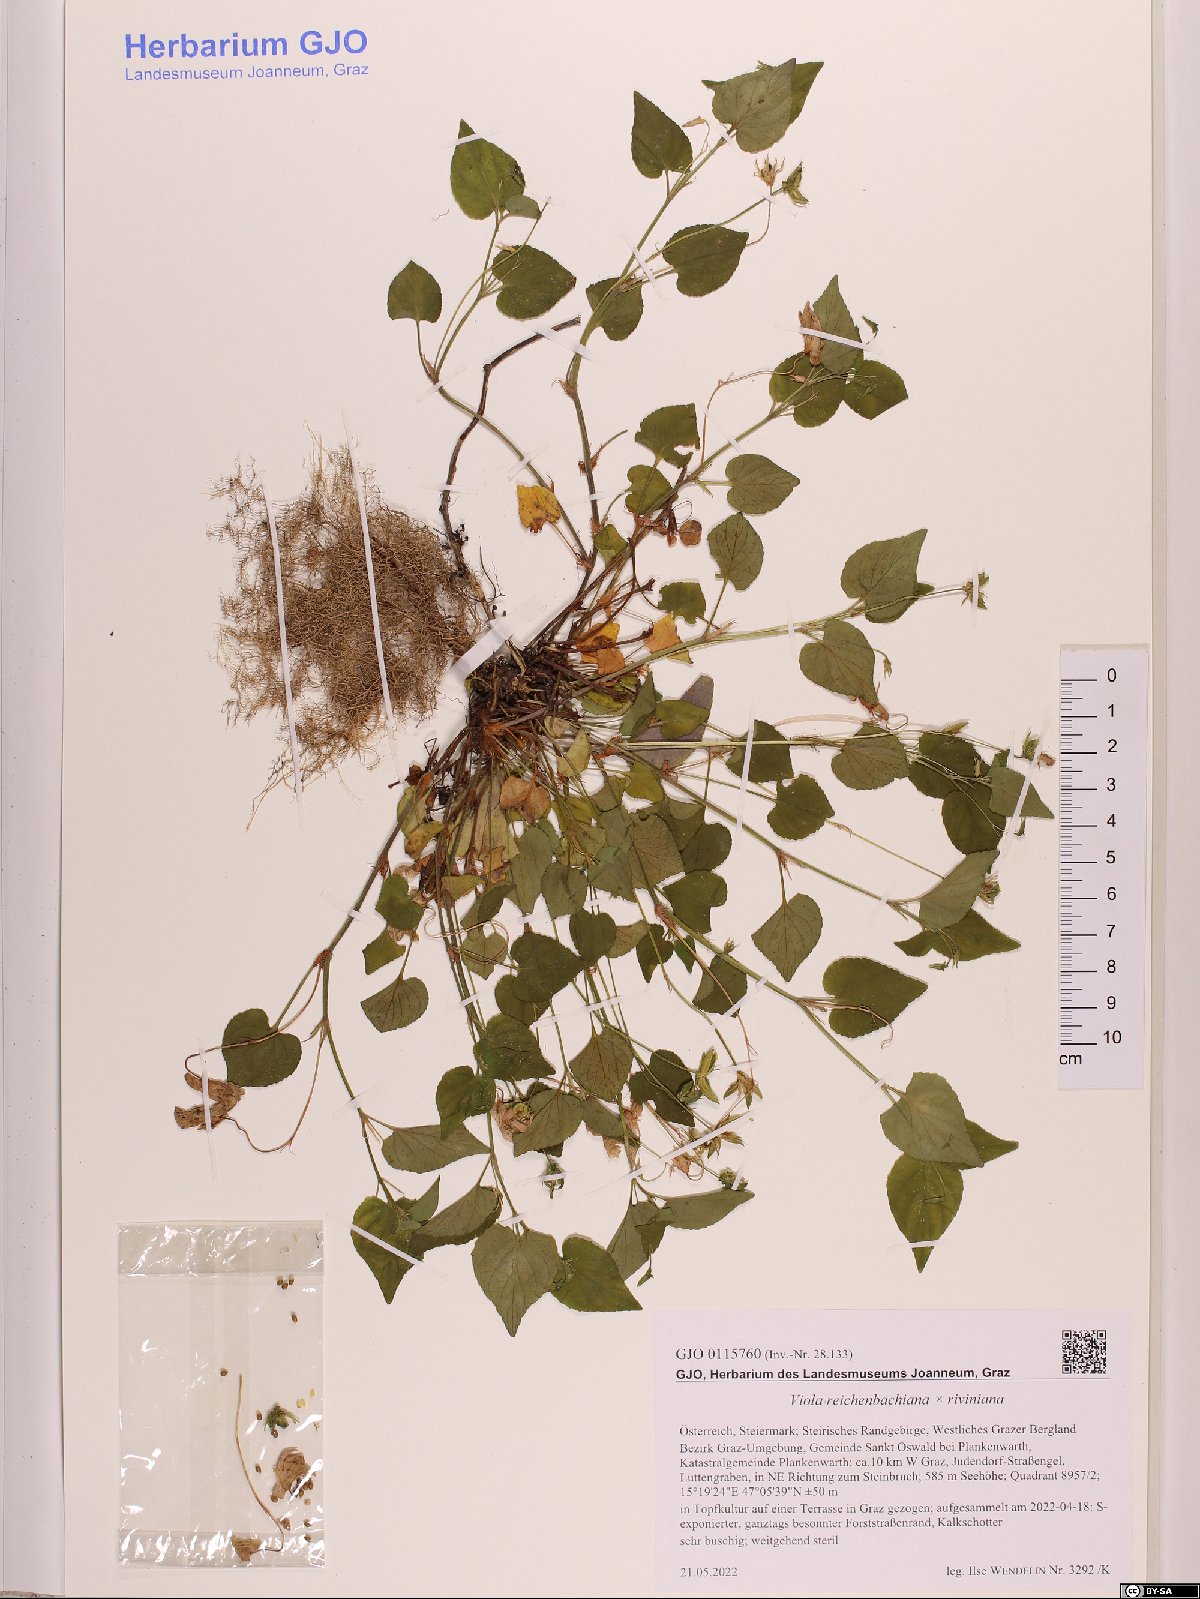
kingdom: Plantae
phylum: Tracheophyta
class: Magnoliopsida
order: Malpighiales
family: Violaceae
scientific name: Violaceae
